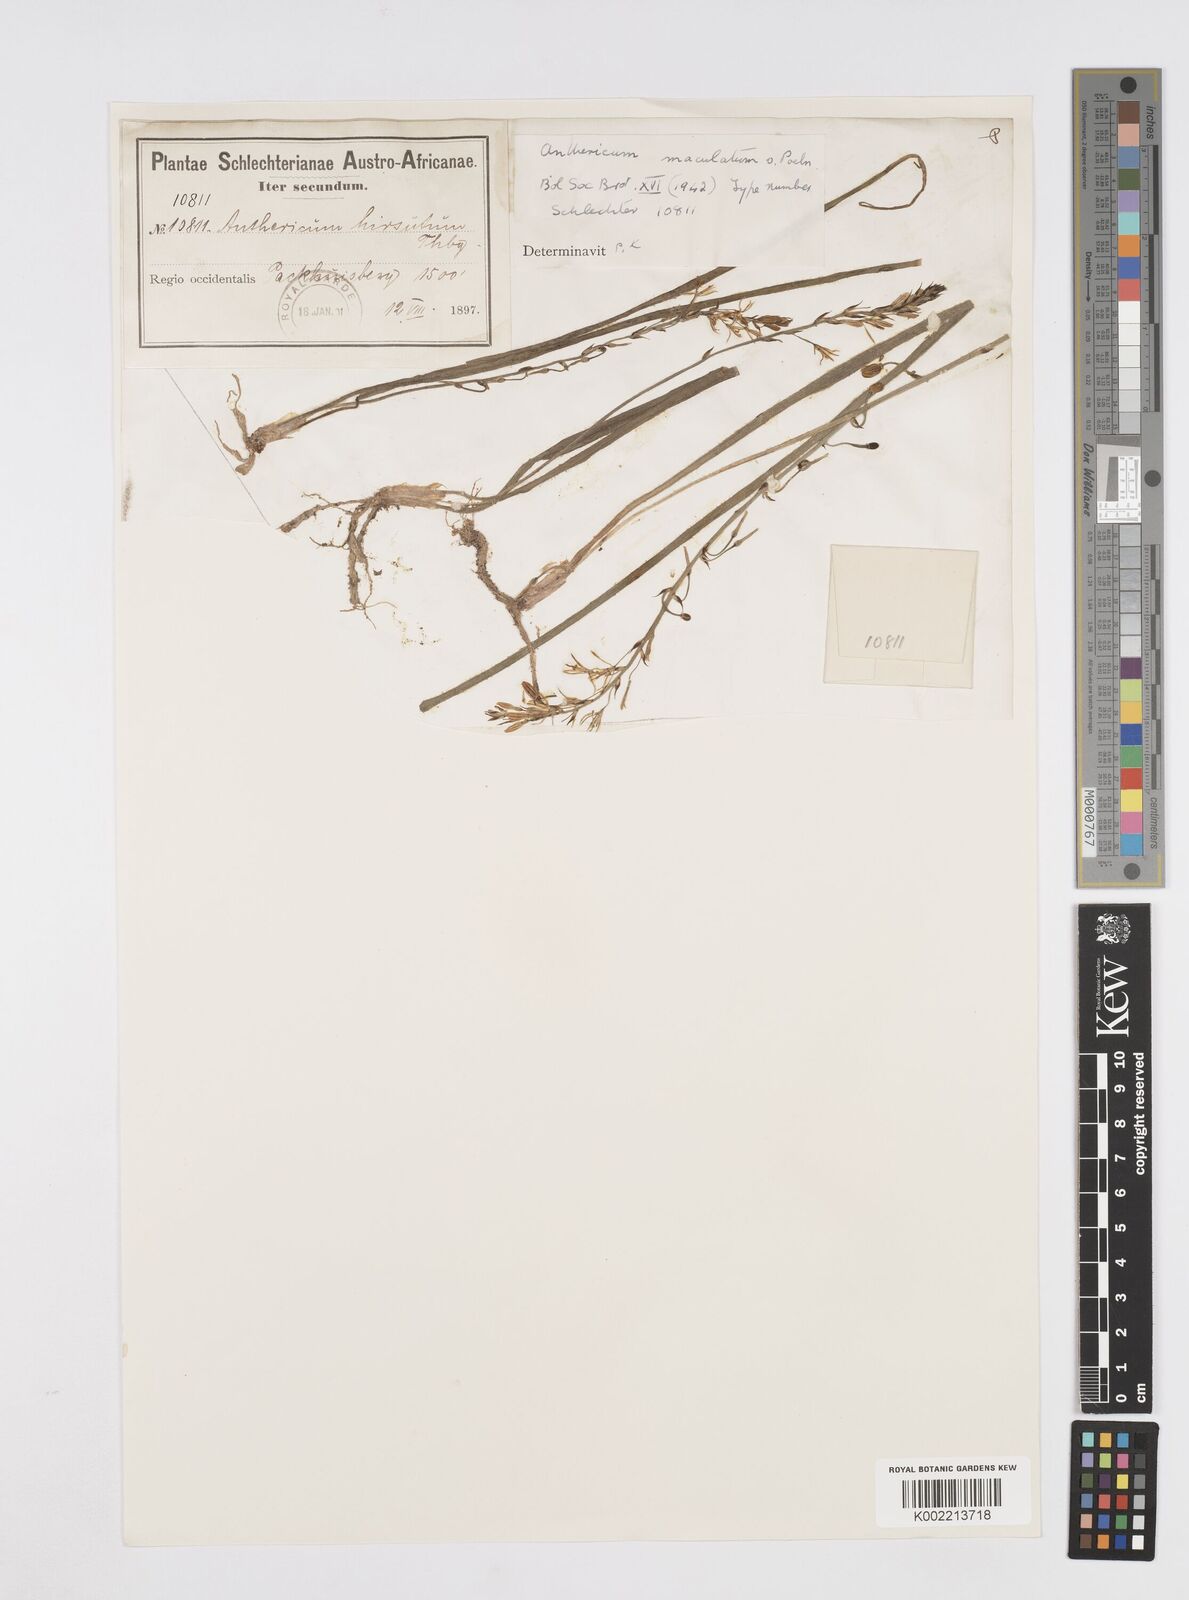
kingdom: Plantae
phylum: Tracheophyta
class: Liliopsida
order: Asparagales
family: Asphodelaceae
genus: Trachyandra
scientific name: Trachyandra ciliata
